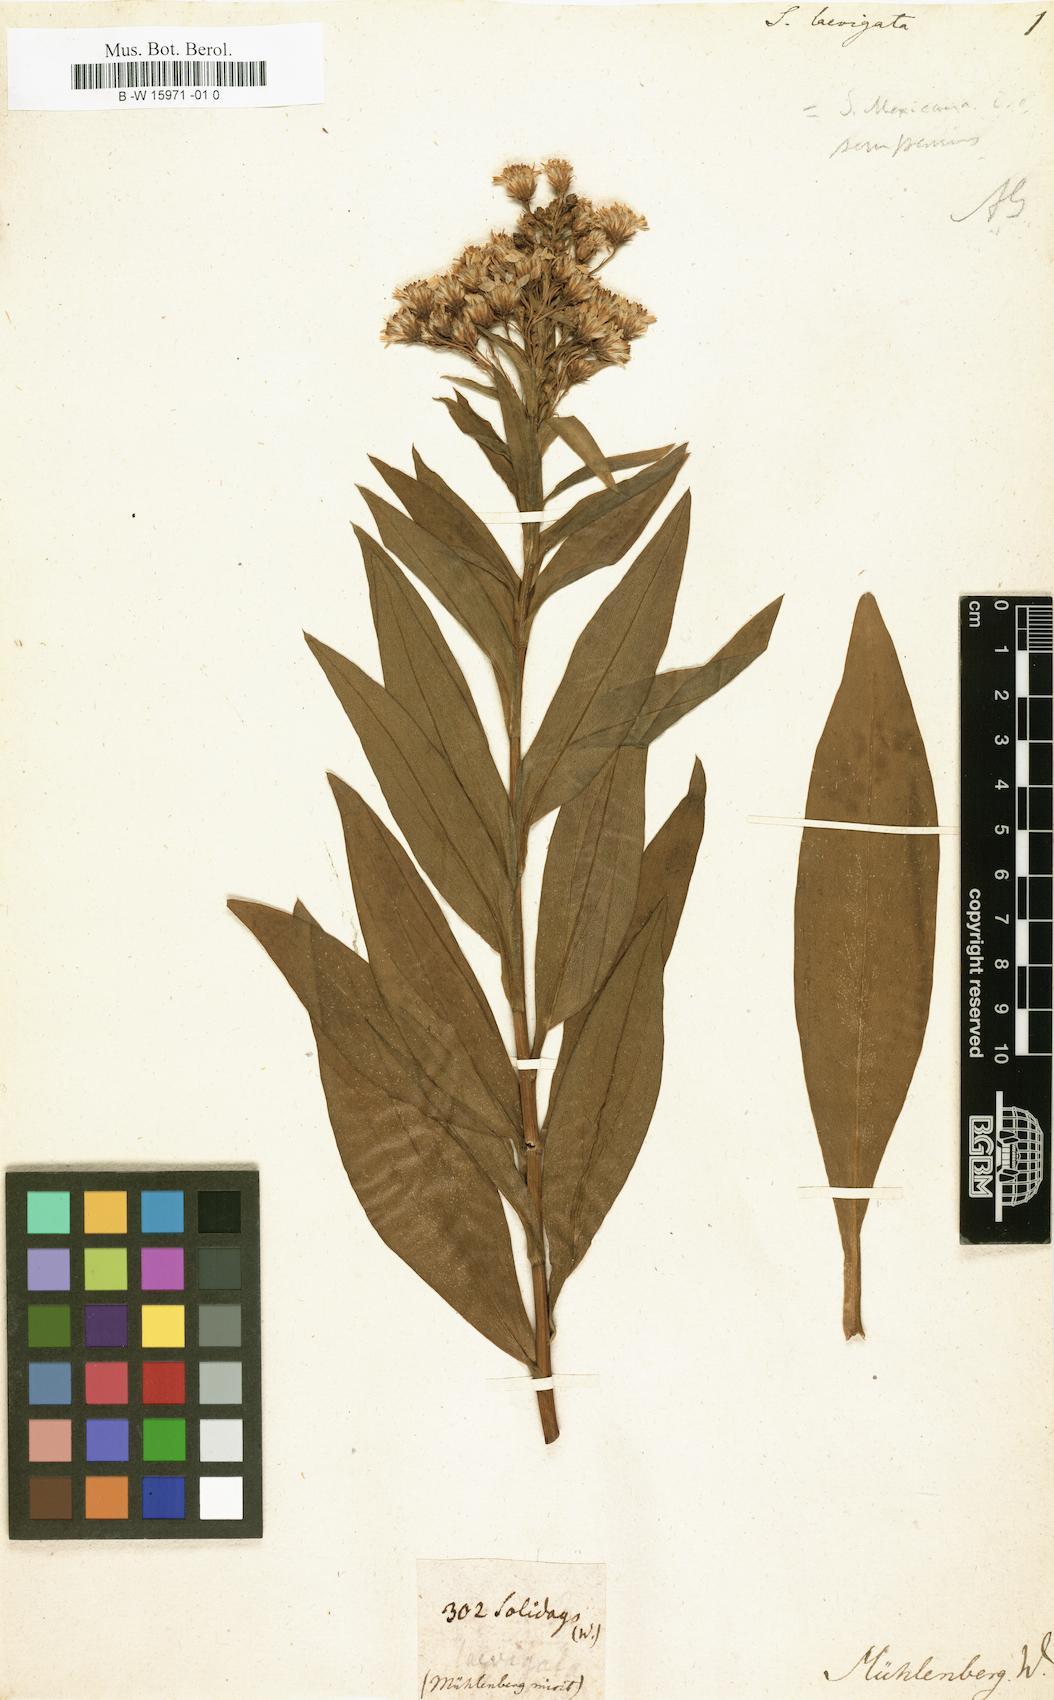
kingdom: Plantae
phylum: Tracheophyta
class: Magnoliopsida
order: Asterales
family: Asteraceae
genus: Solidago
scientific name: Solidago sempervirens
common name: Salt-marsh goldenrod
